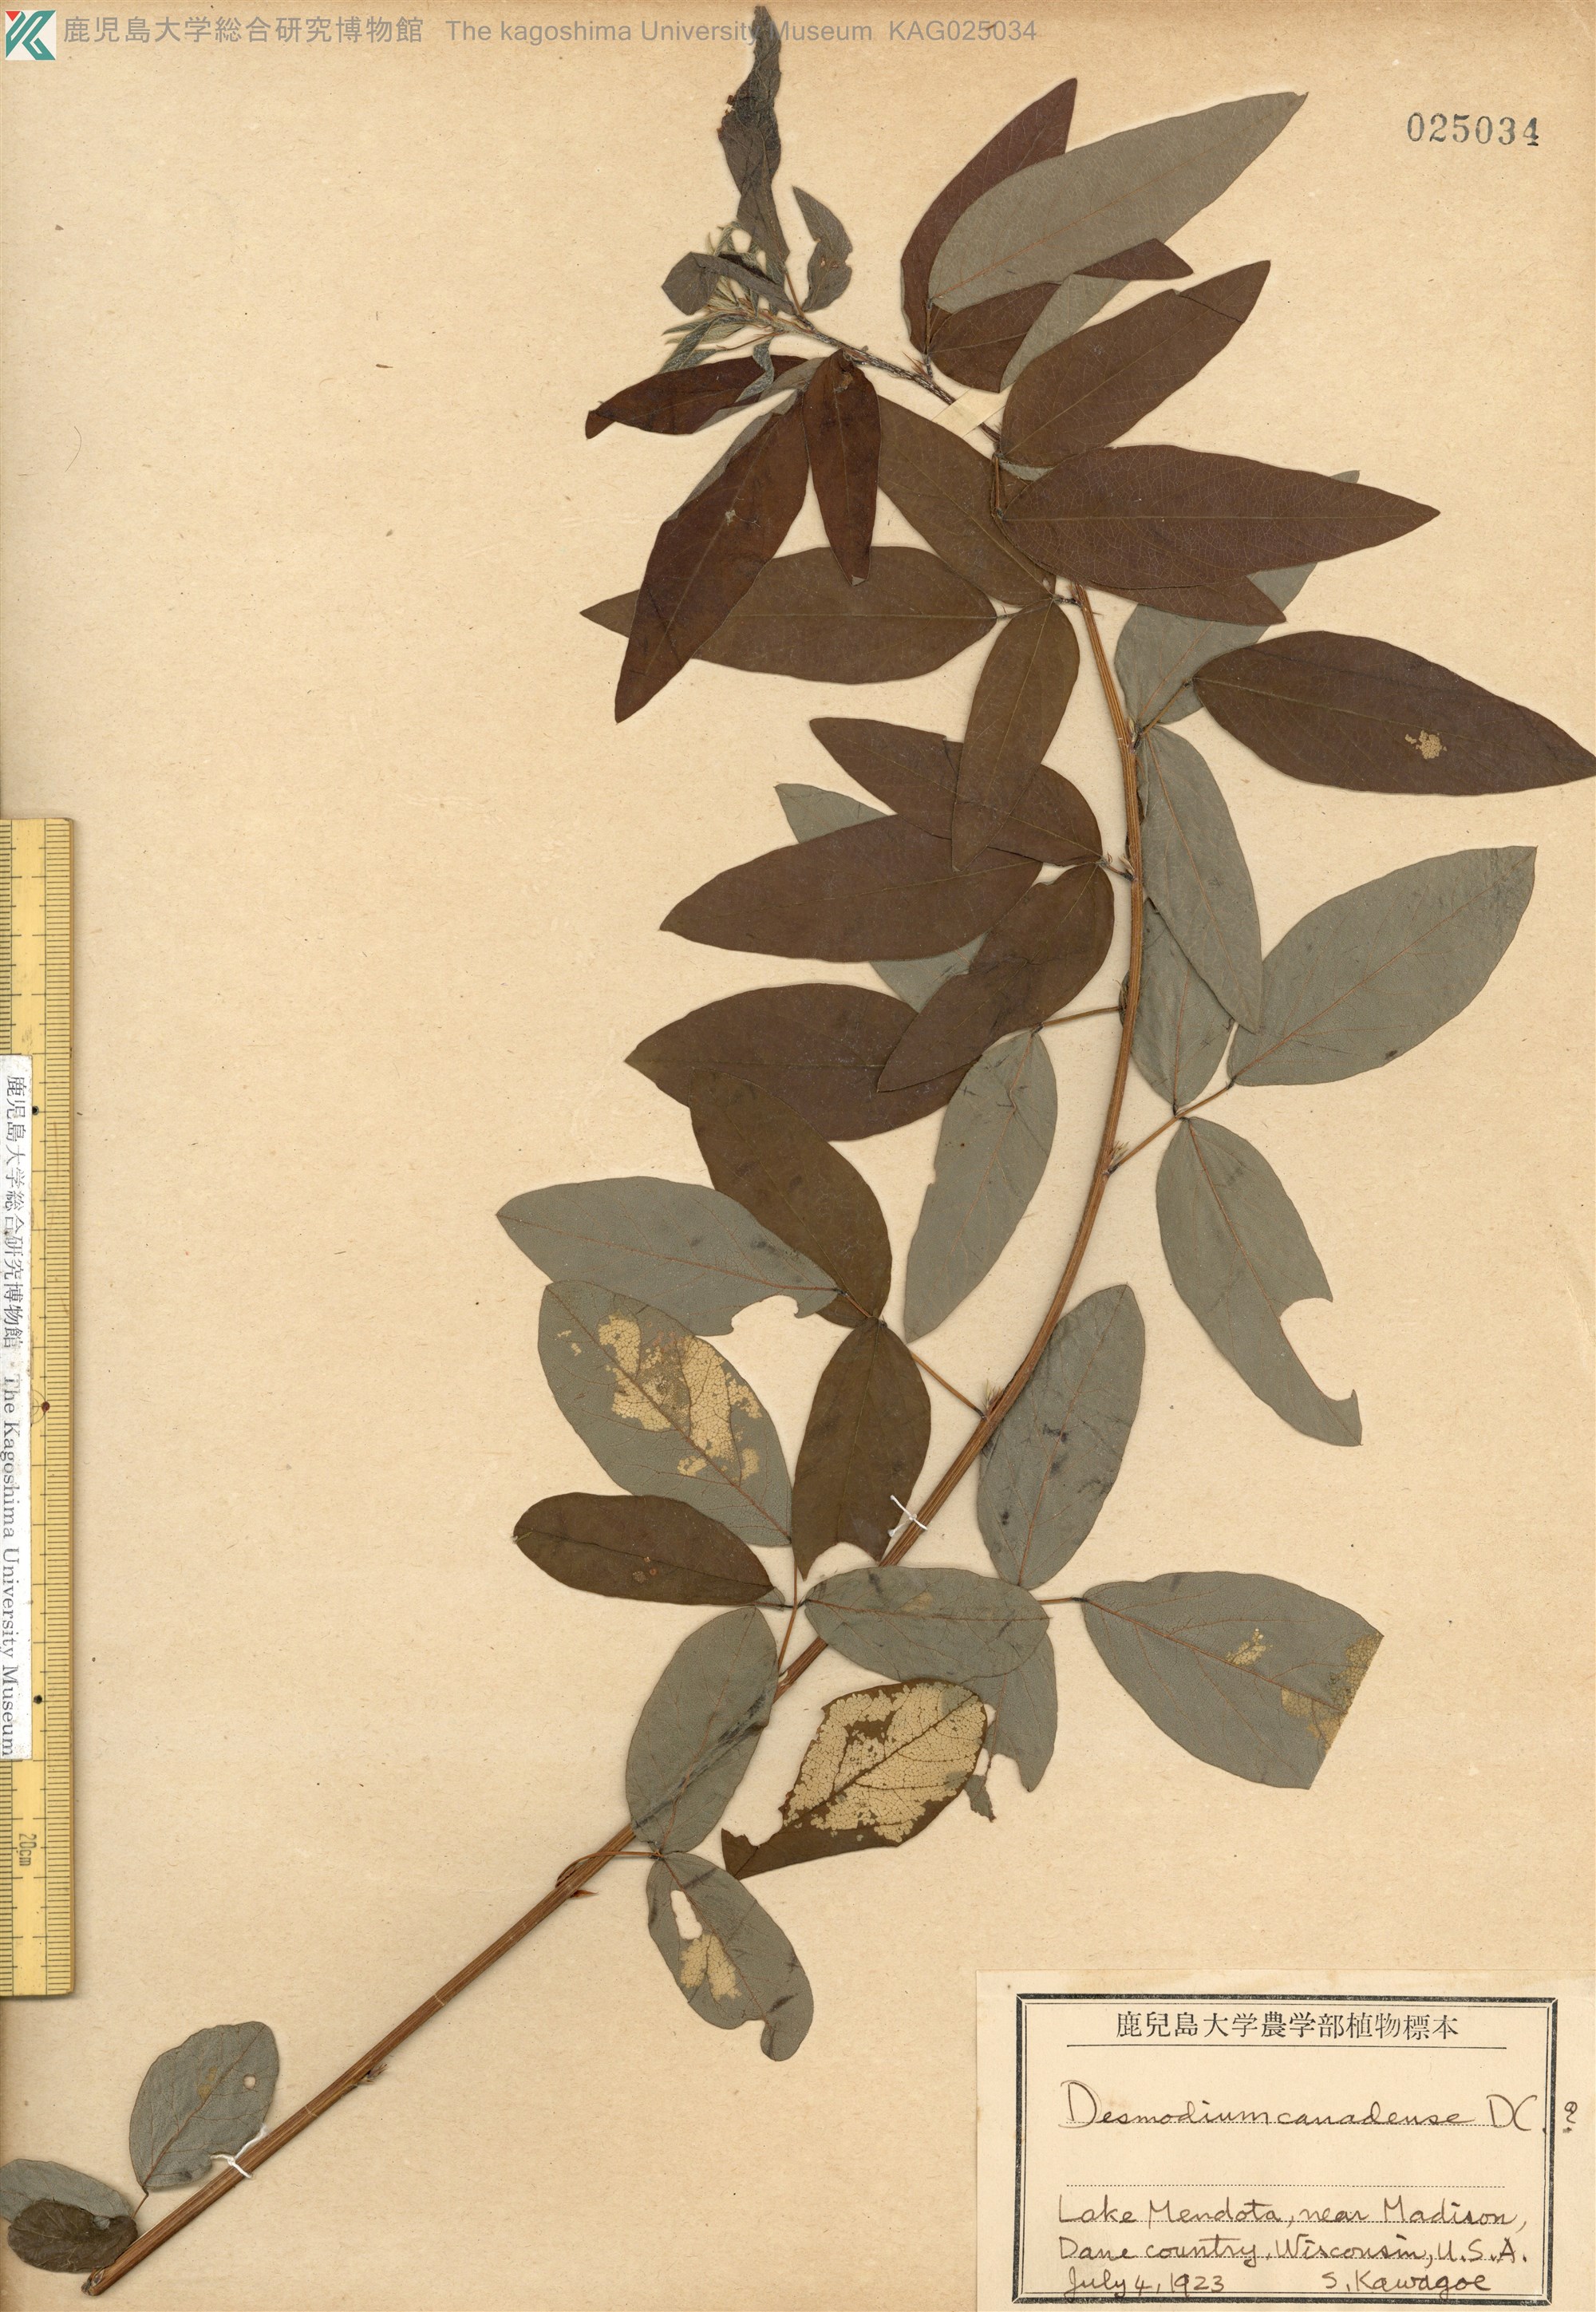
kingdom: Plantae
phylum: Tracheophyta
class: Magnoliopsida
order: Fabales
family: Fabaceae
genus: Desmodium
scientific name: Desmodium canadense
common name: Canada tick-trefoil
